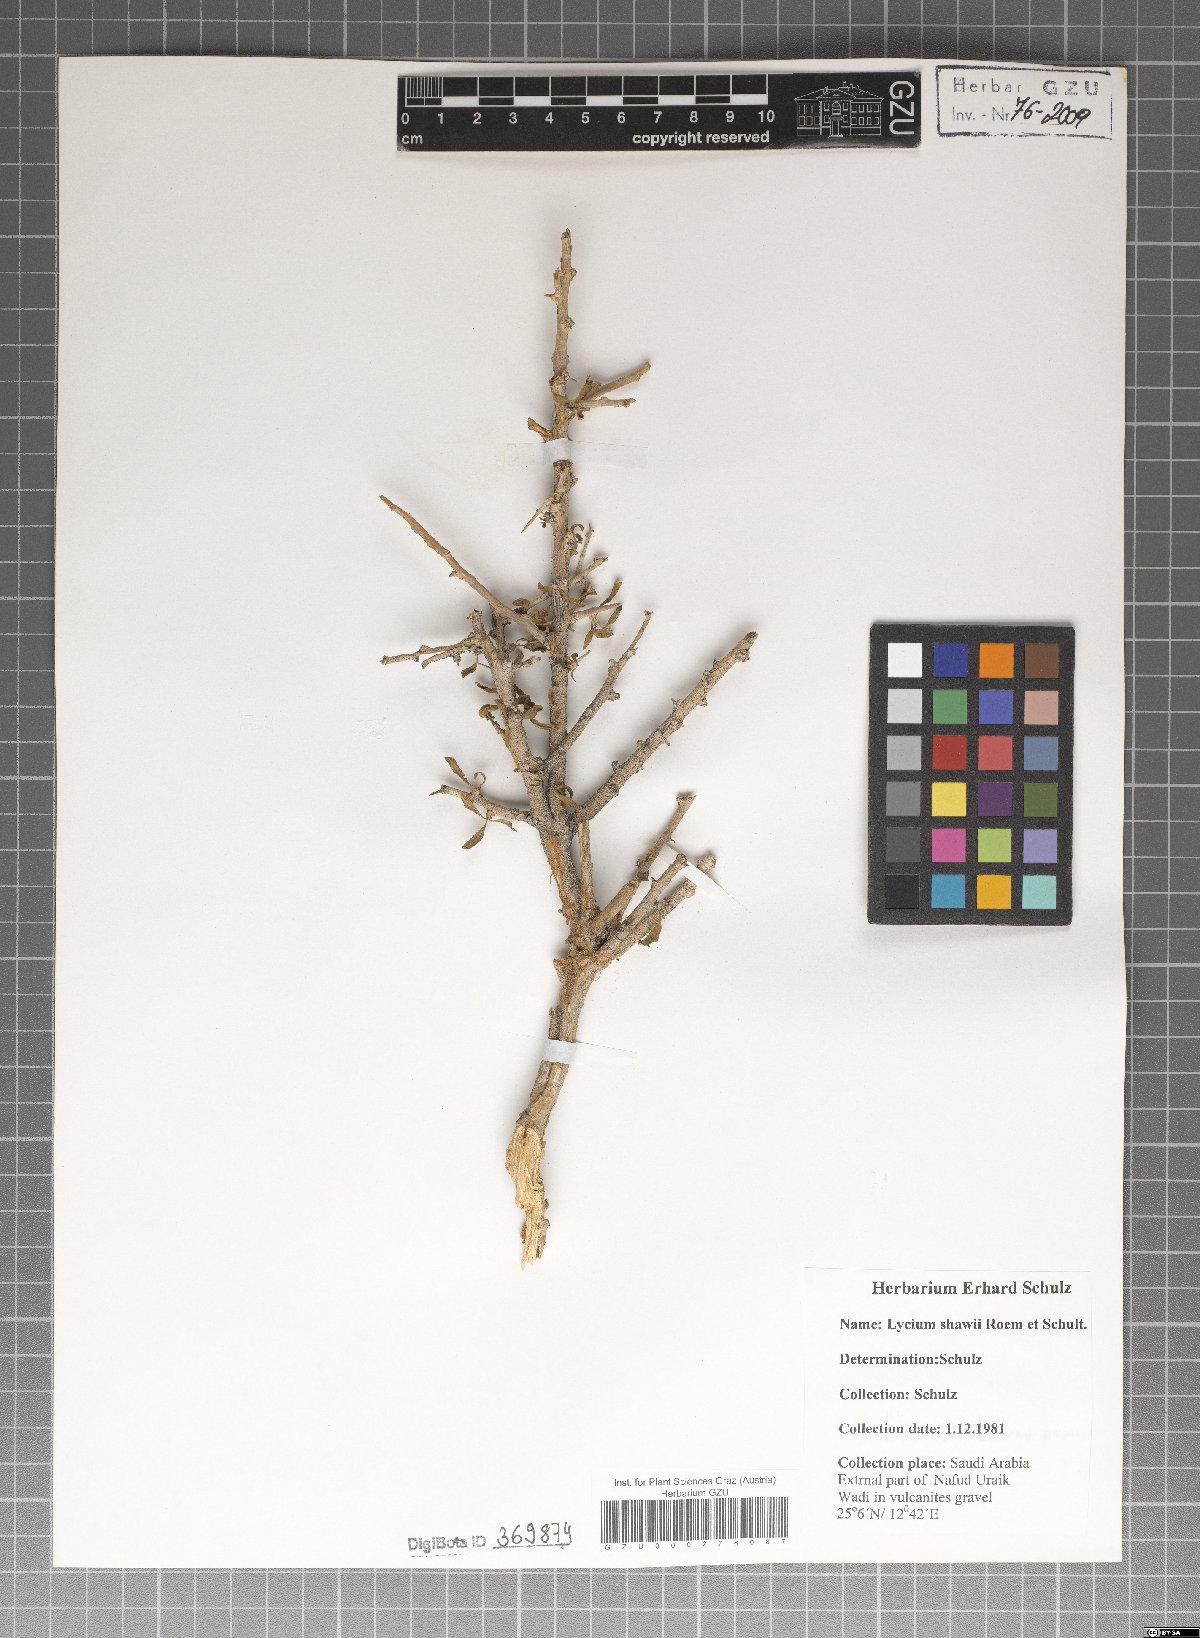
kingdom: Plantae
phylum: Tracheophyta
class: Magnoliopsida
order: Solanales
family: Solanaceae
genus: Lycium
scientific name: Lycium shawii
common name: Boxthorn
